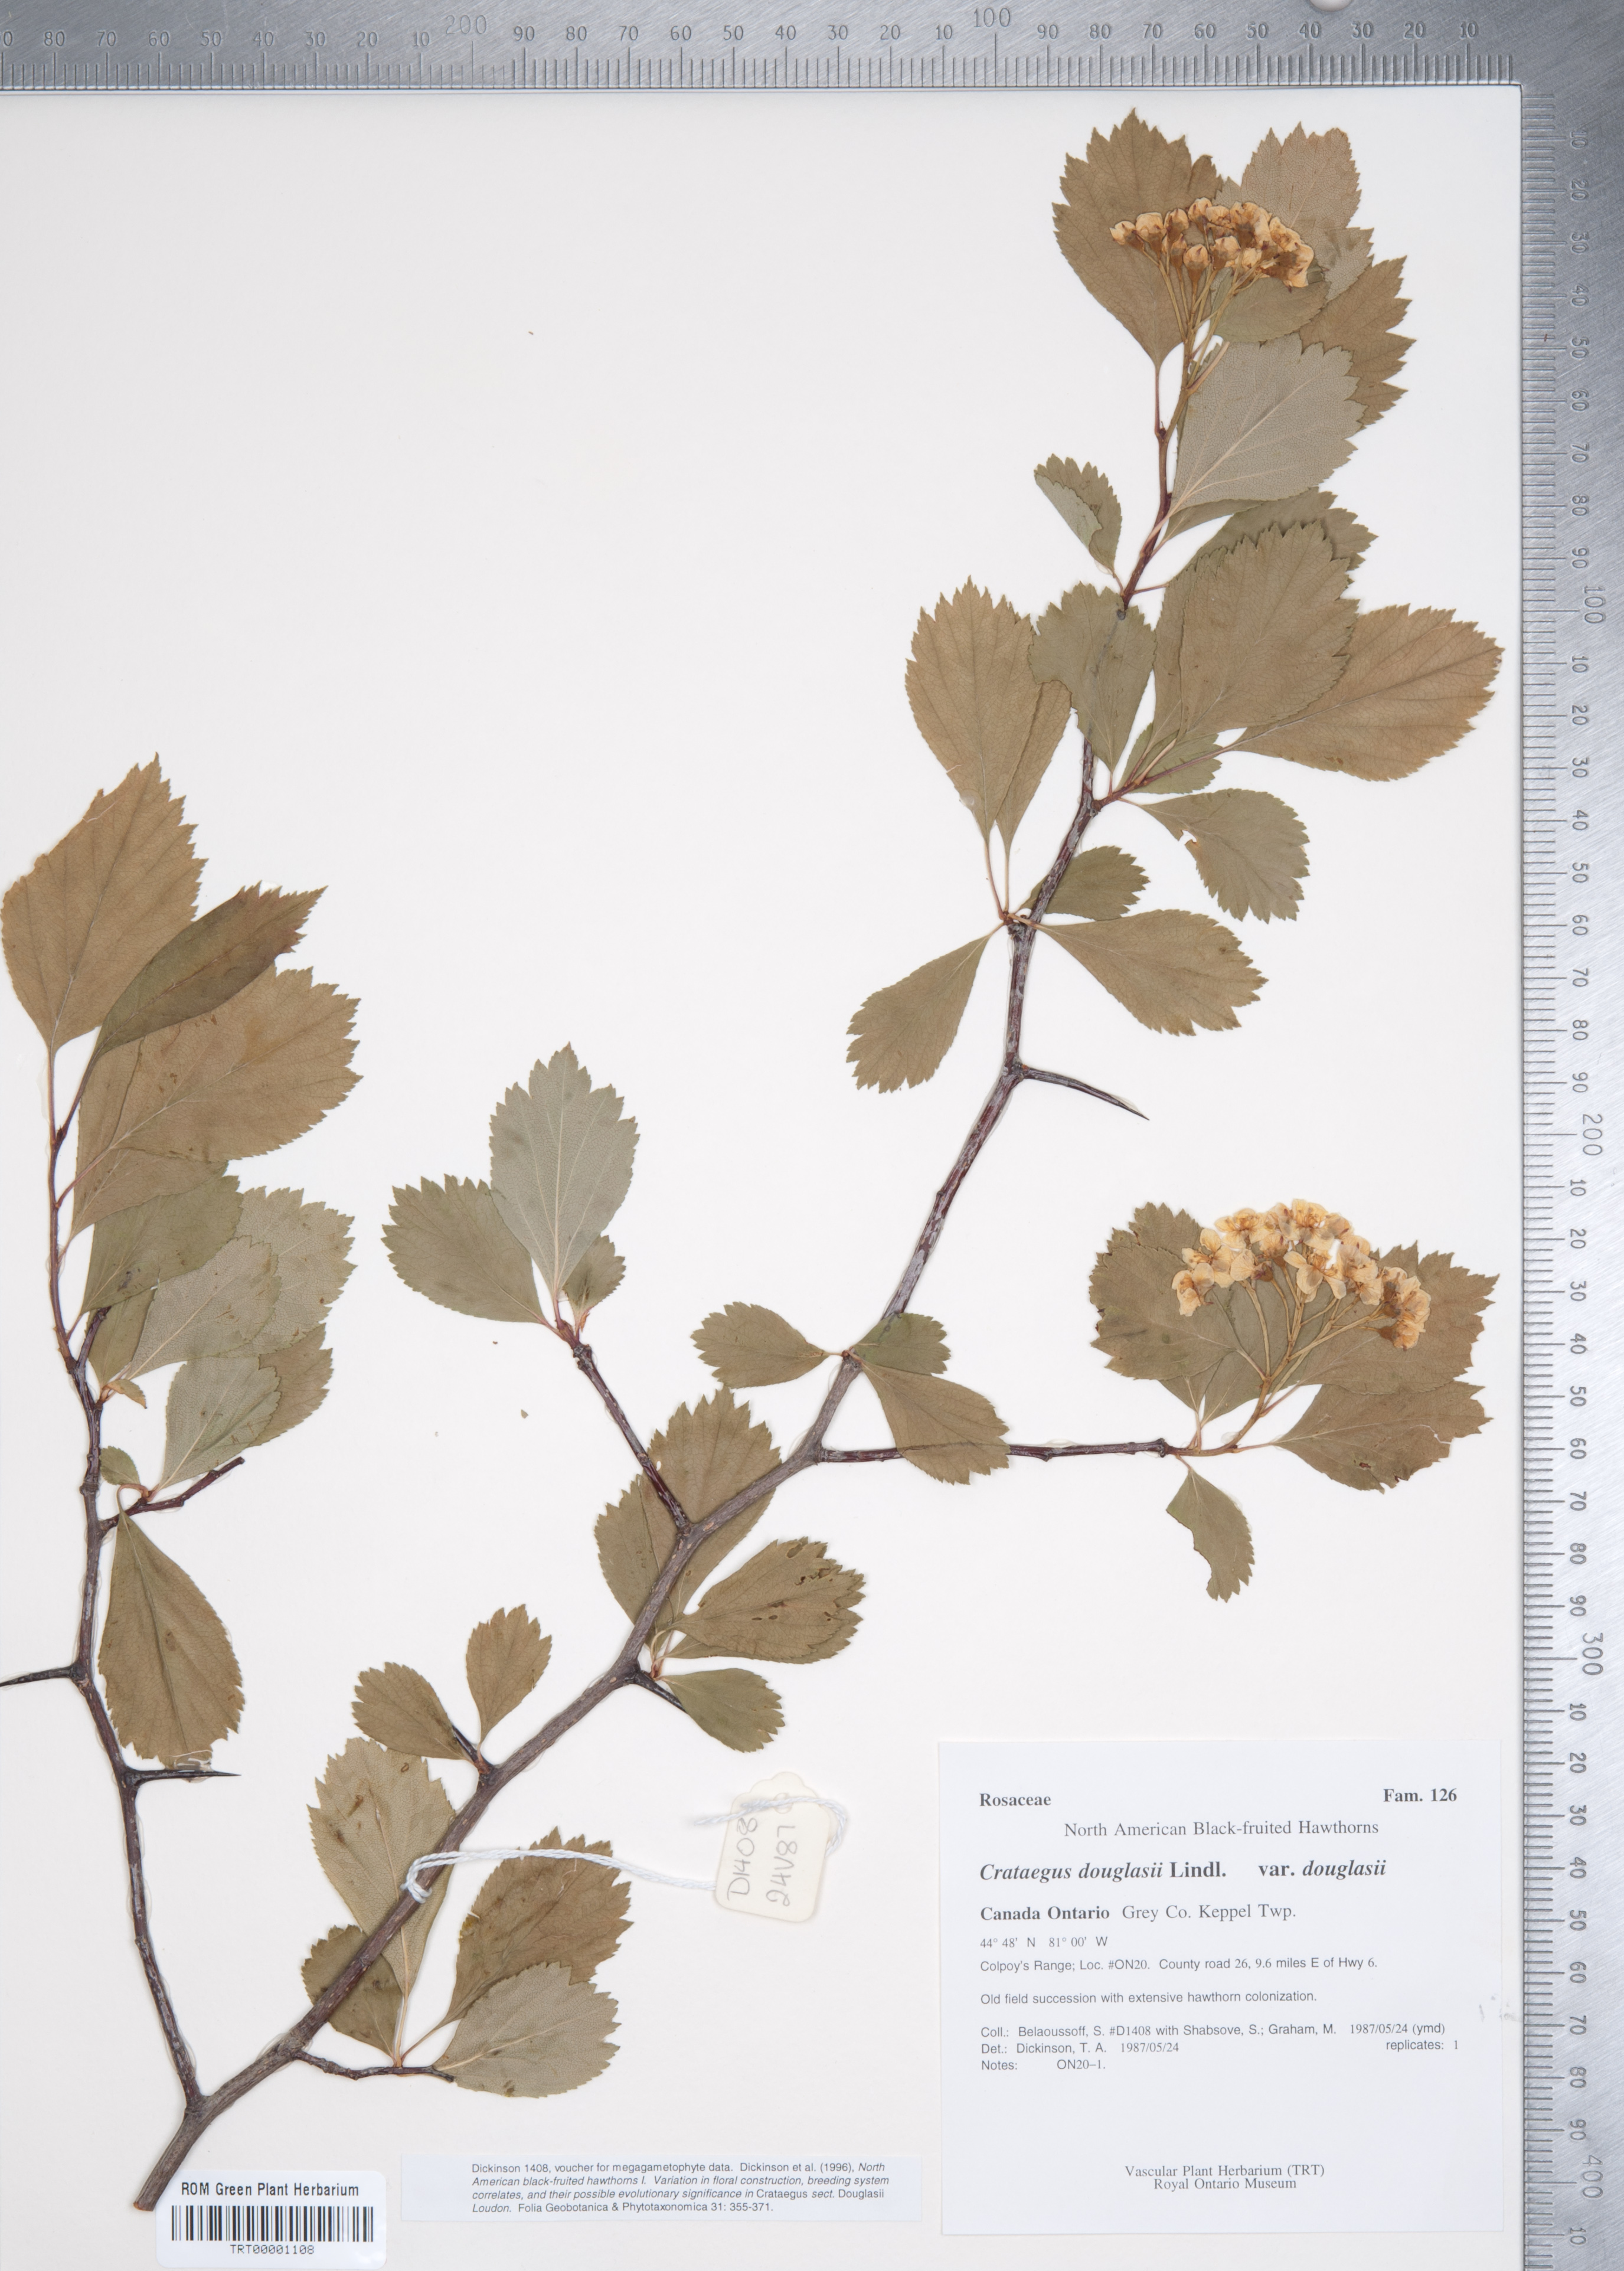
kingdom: Plantae
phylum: Tracheophyta
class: Magnoliopsida
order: Rosales
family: Rosaceae
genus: Crataegus
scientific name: Crataegus douglasii
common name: Black hawthorn
